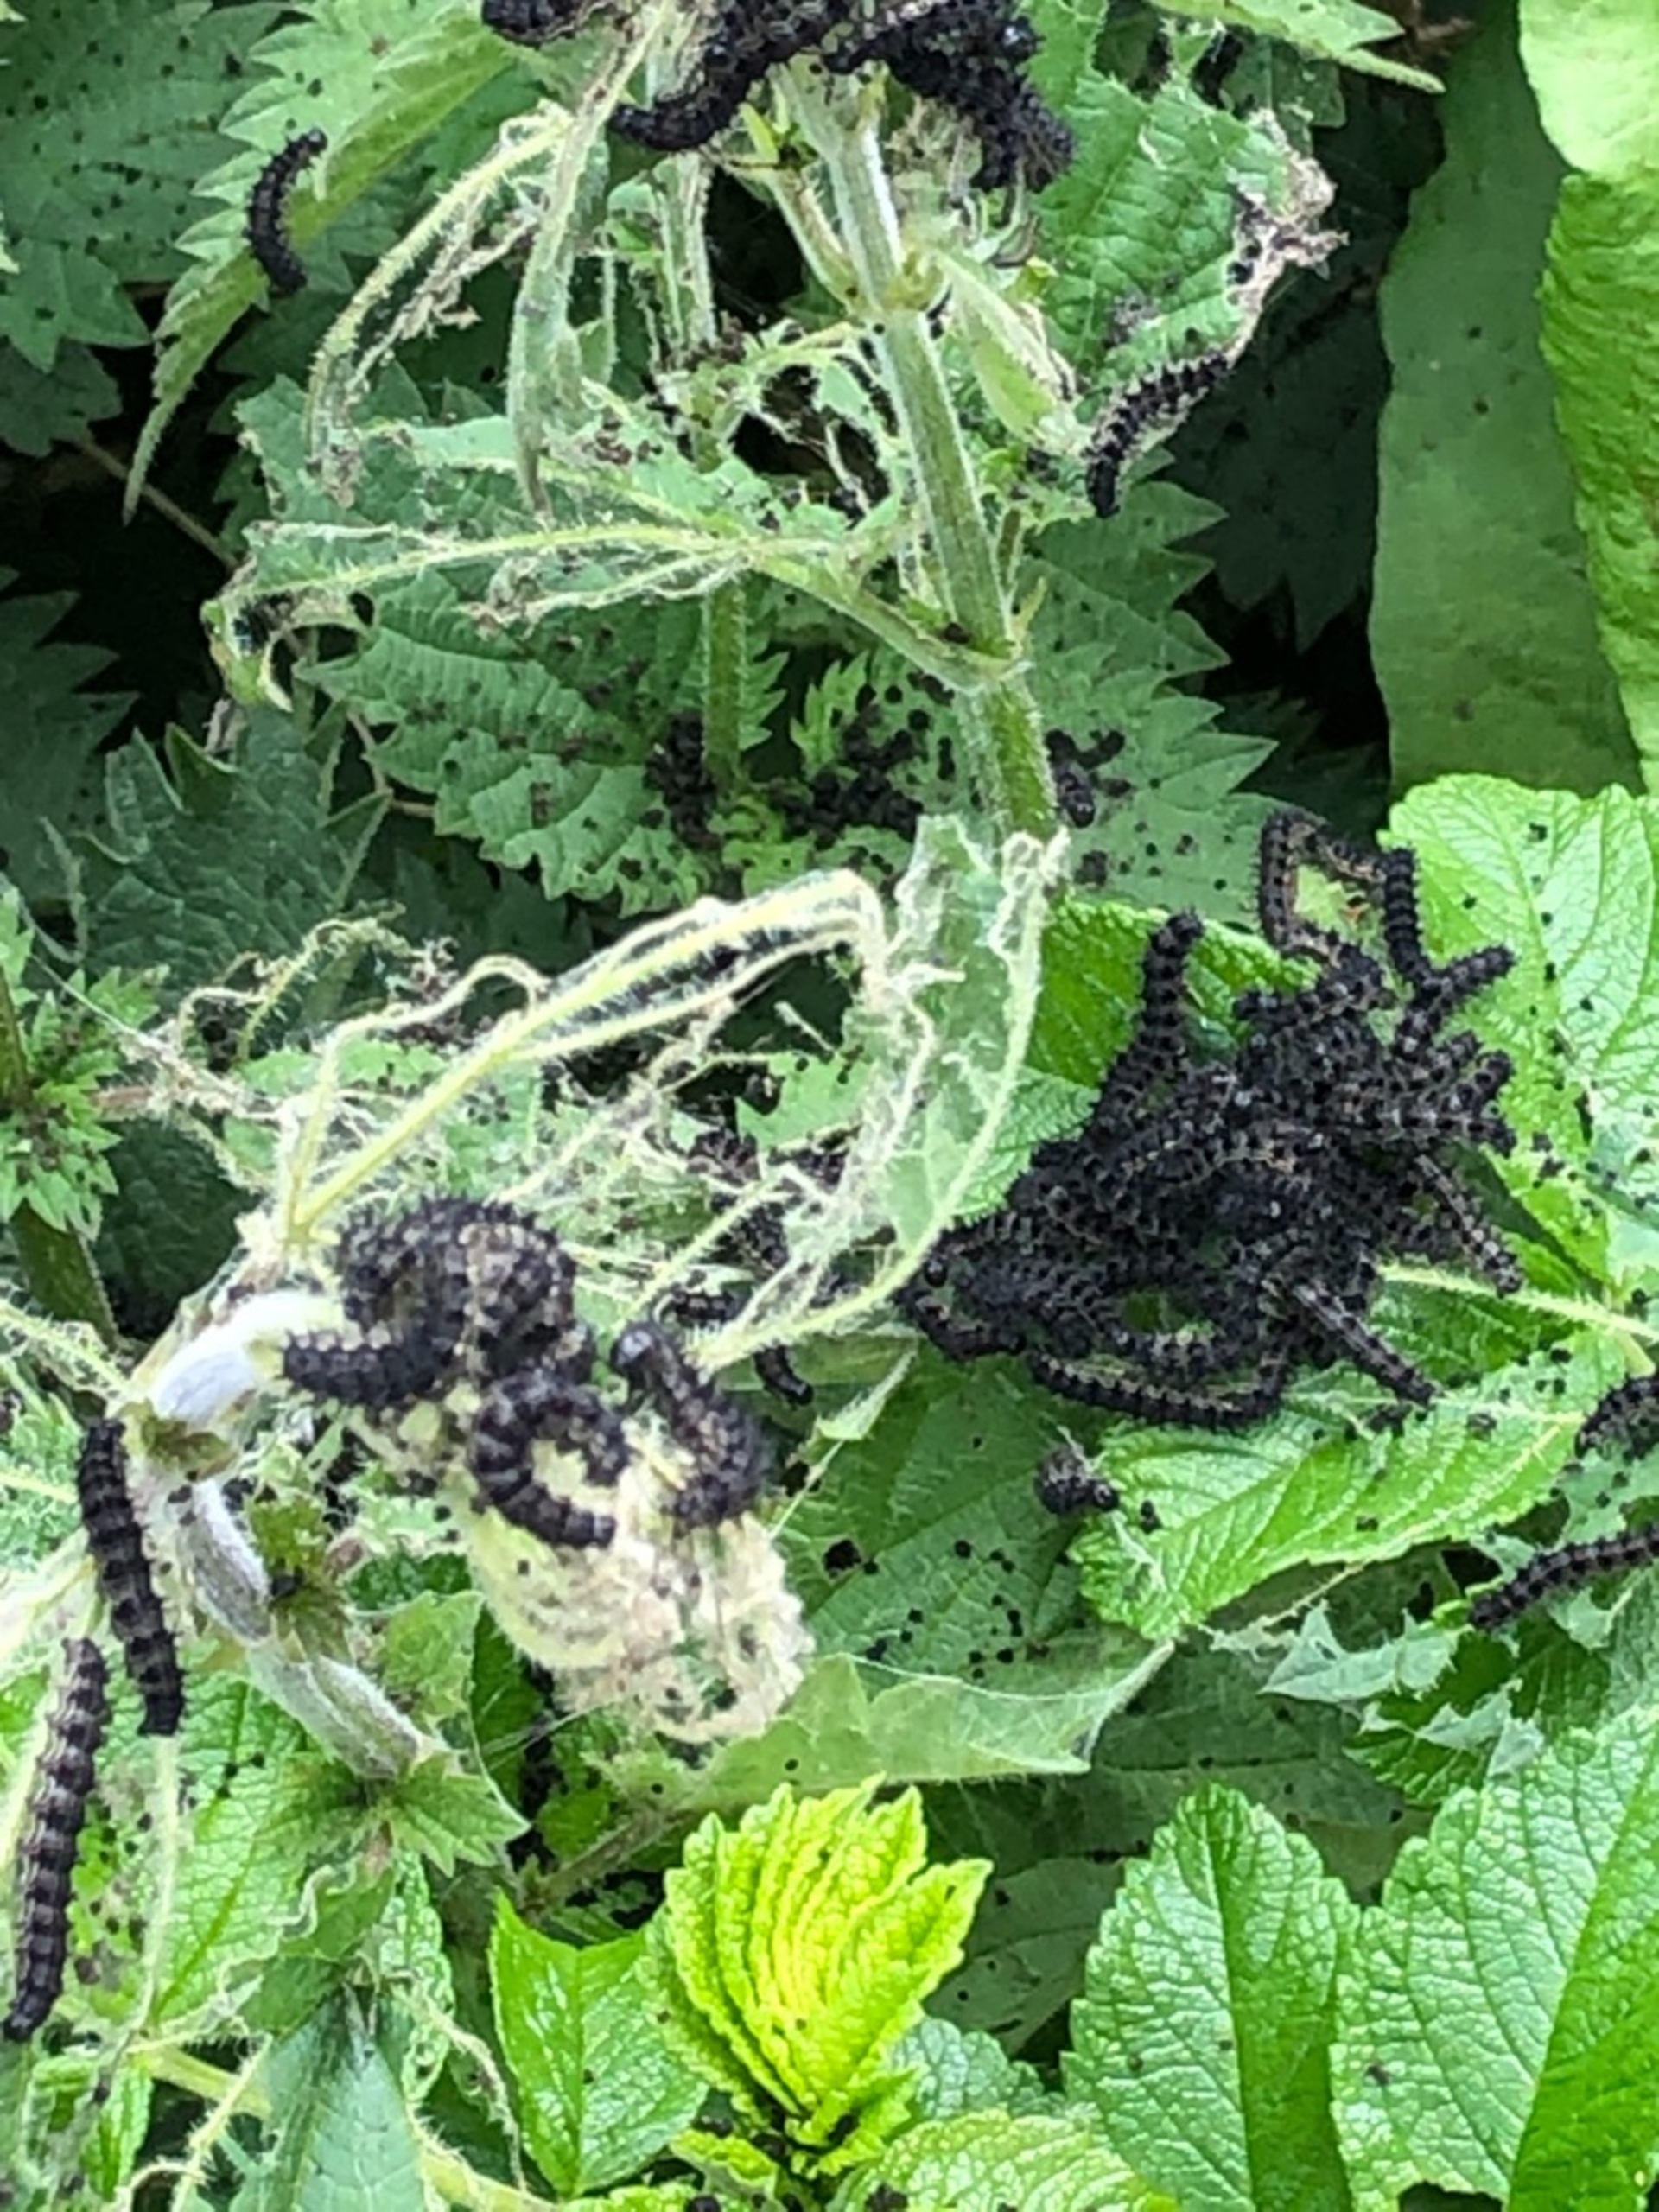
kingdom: Animalia
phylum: Arthropoda
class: Insecta
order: Lepidoptera
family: Nymphalidae
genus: Aglais
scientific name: Aglais urticae
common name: Nældens takvinge
